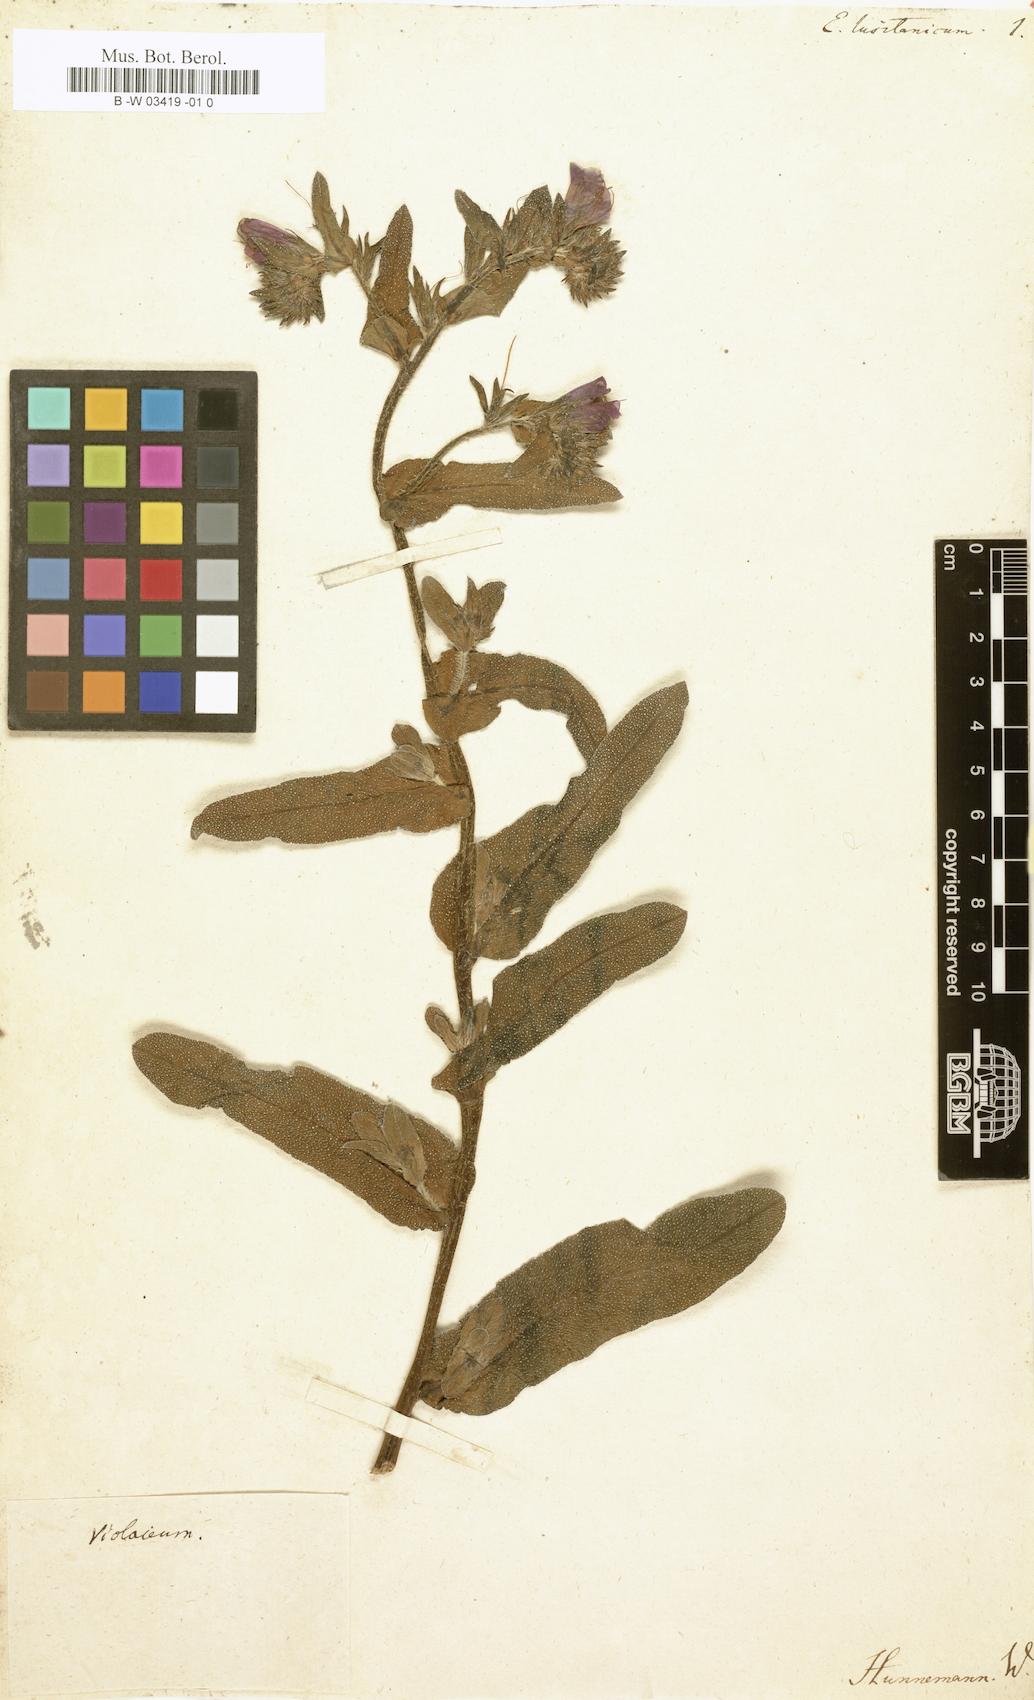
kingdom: Plantae
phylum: Tracheophyta
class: Magnoliopsida
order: Boraginales
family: Boraginaceae
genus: Echium
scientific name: Echium lusitanicum
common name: Violet-vein viper's bugloss
